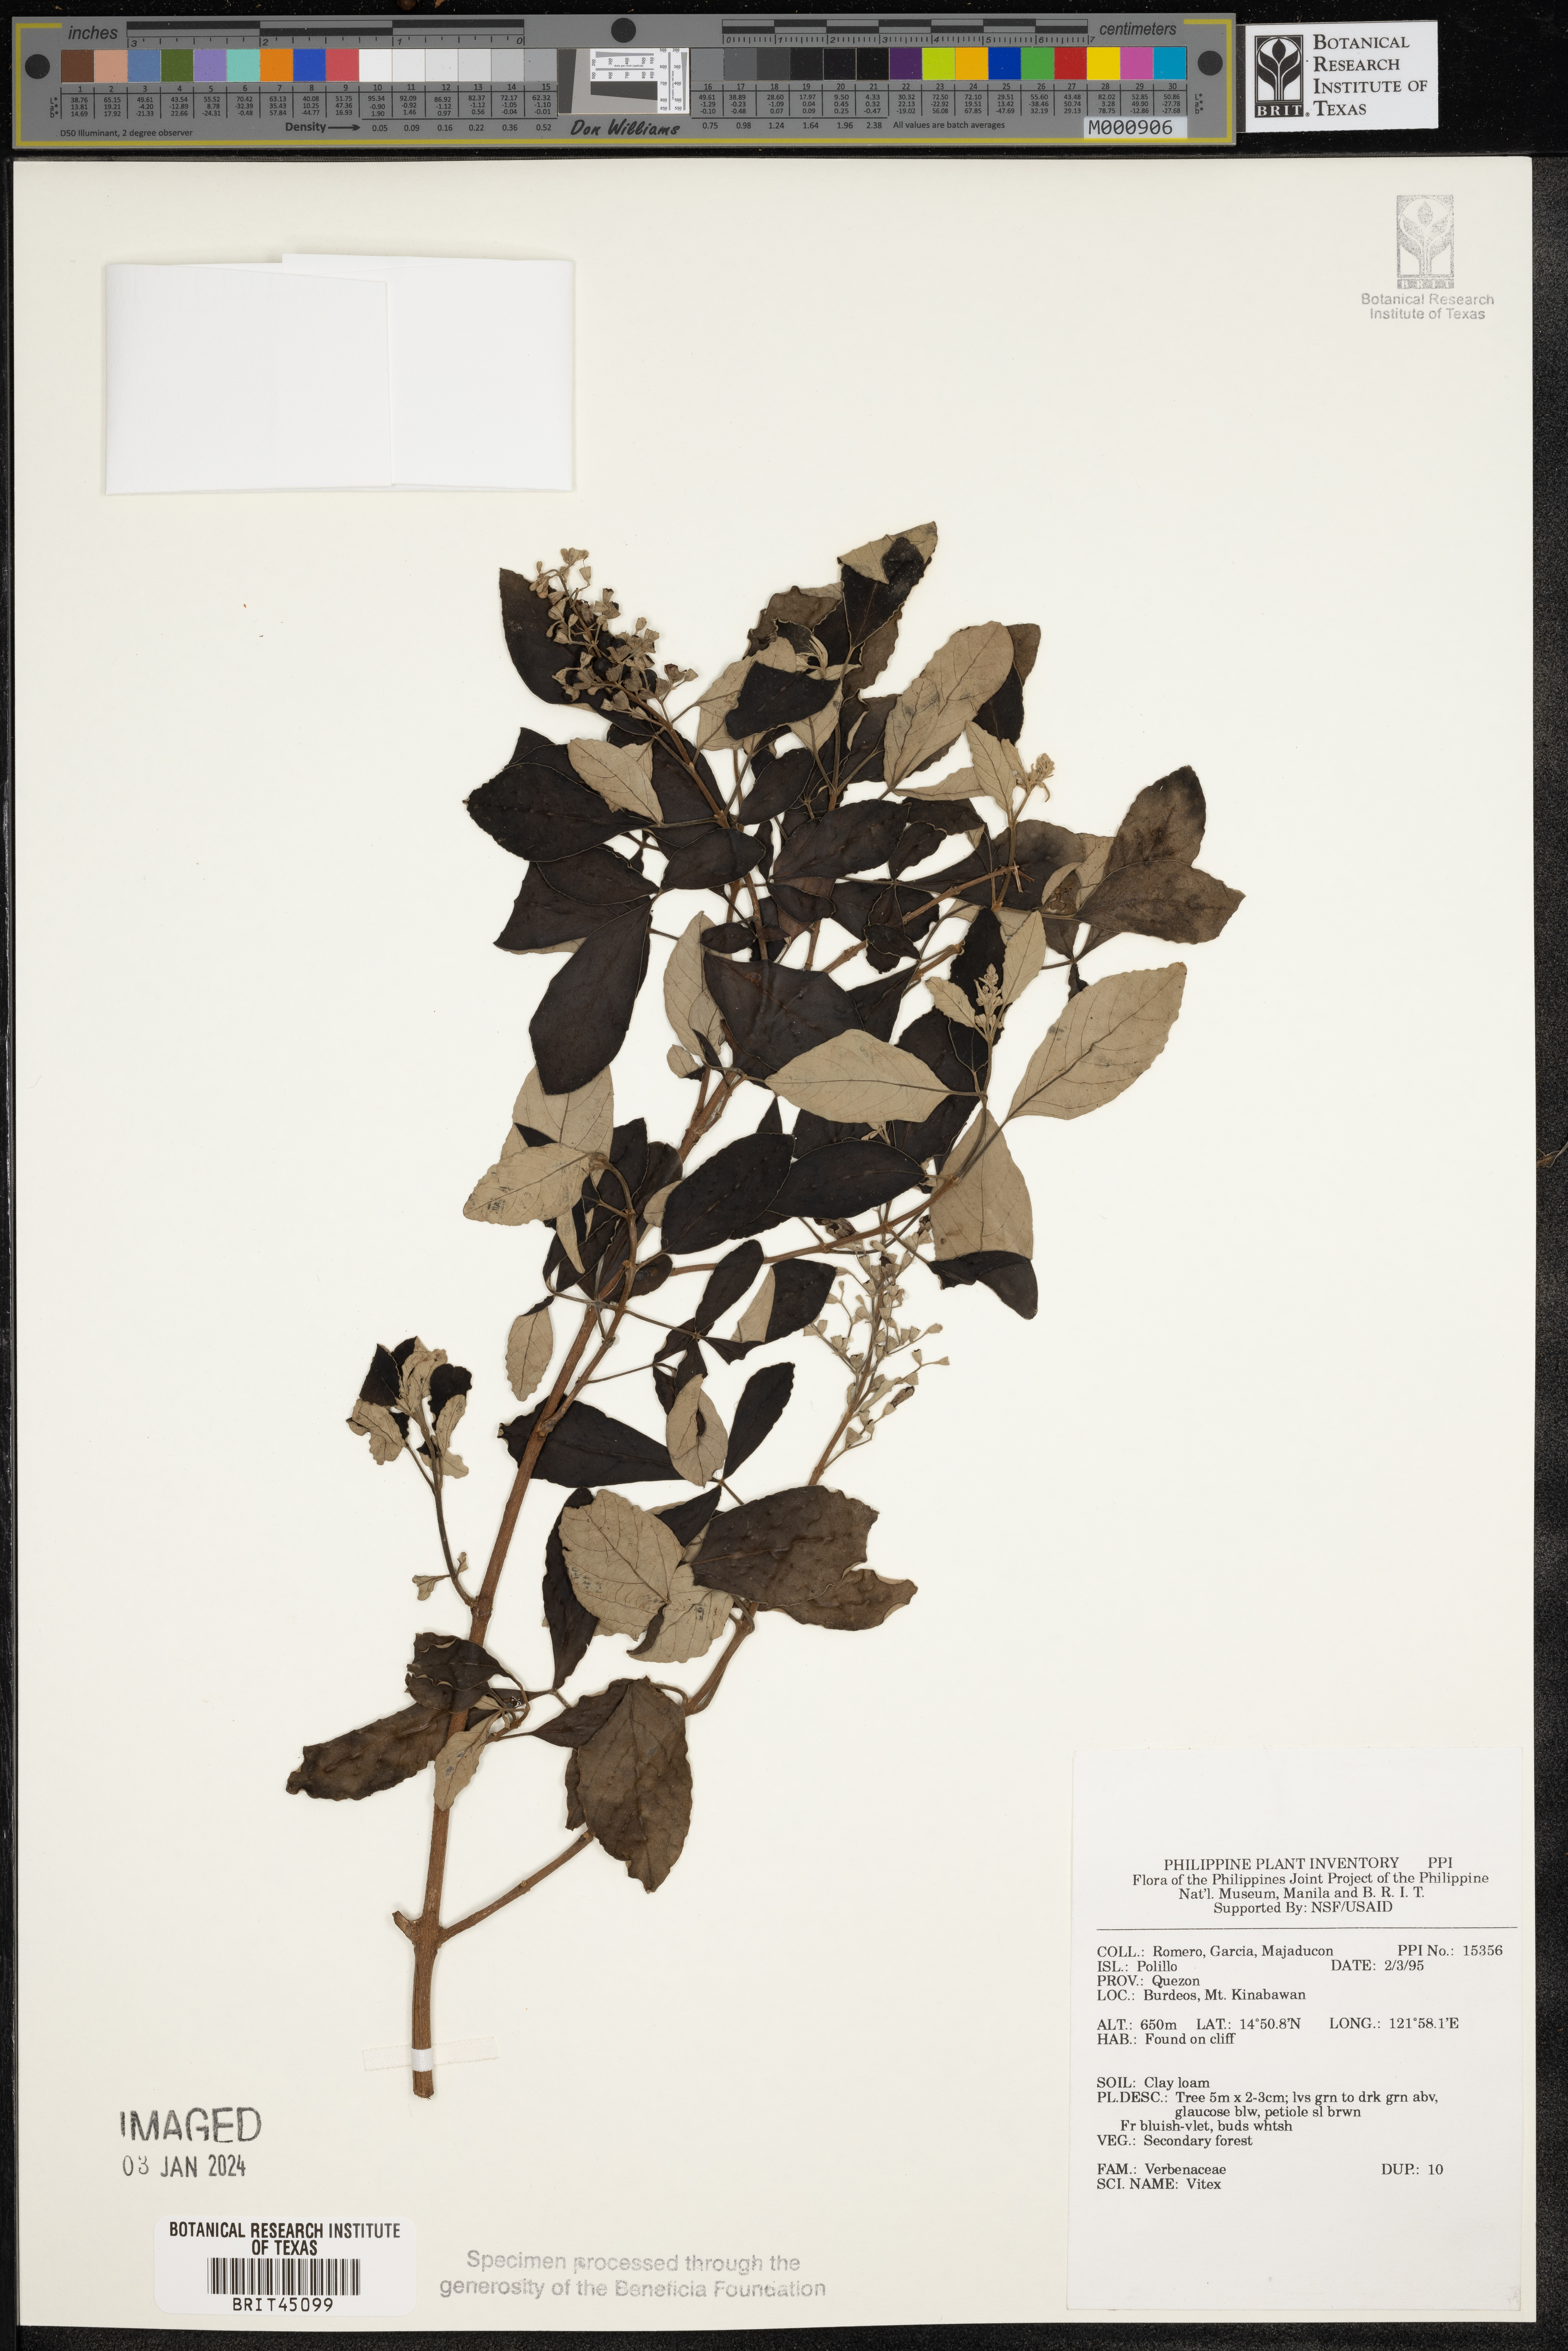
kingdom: Plantae
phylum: Tracheophyta
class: Magnoliopsida
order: Lamiales
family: Lamiaceae
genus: Vitex
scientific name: Vitex
